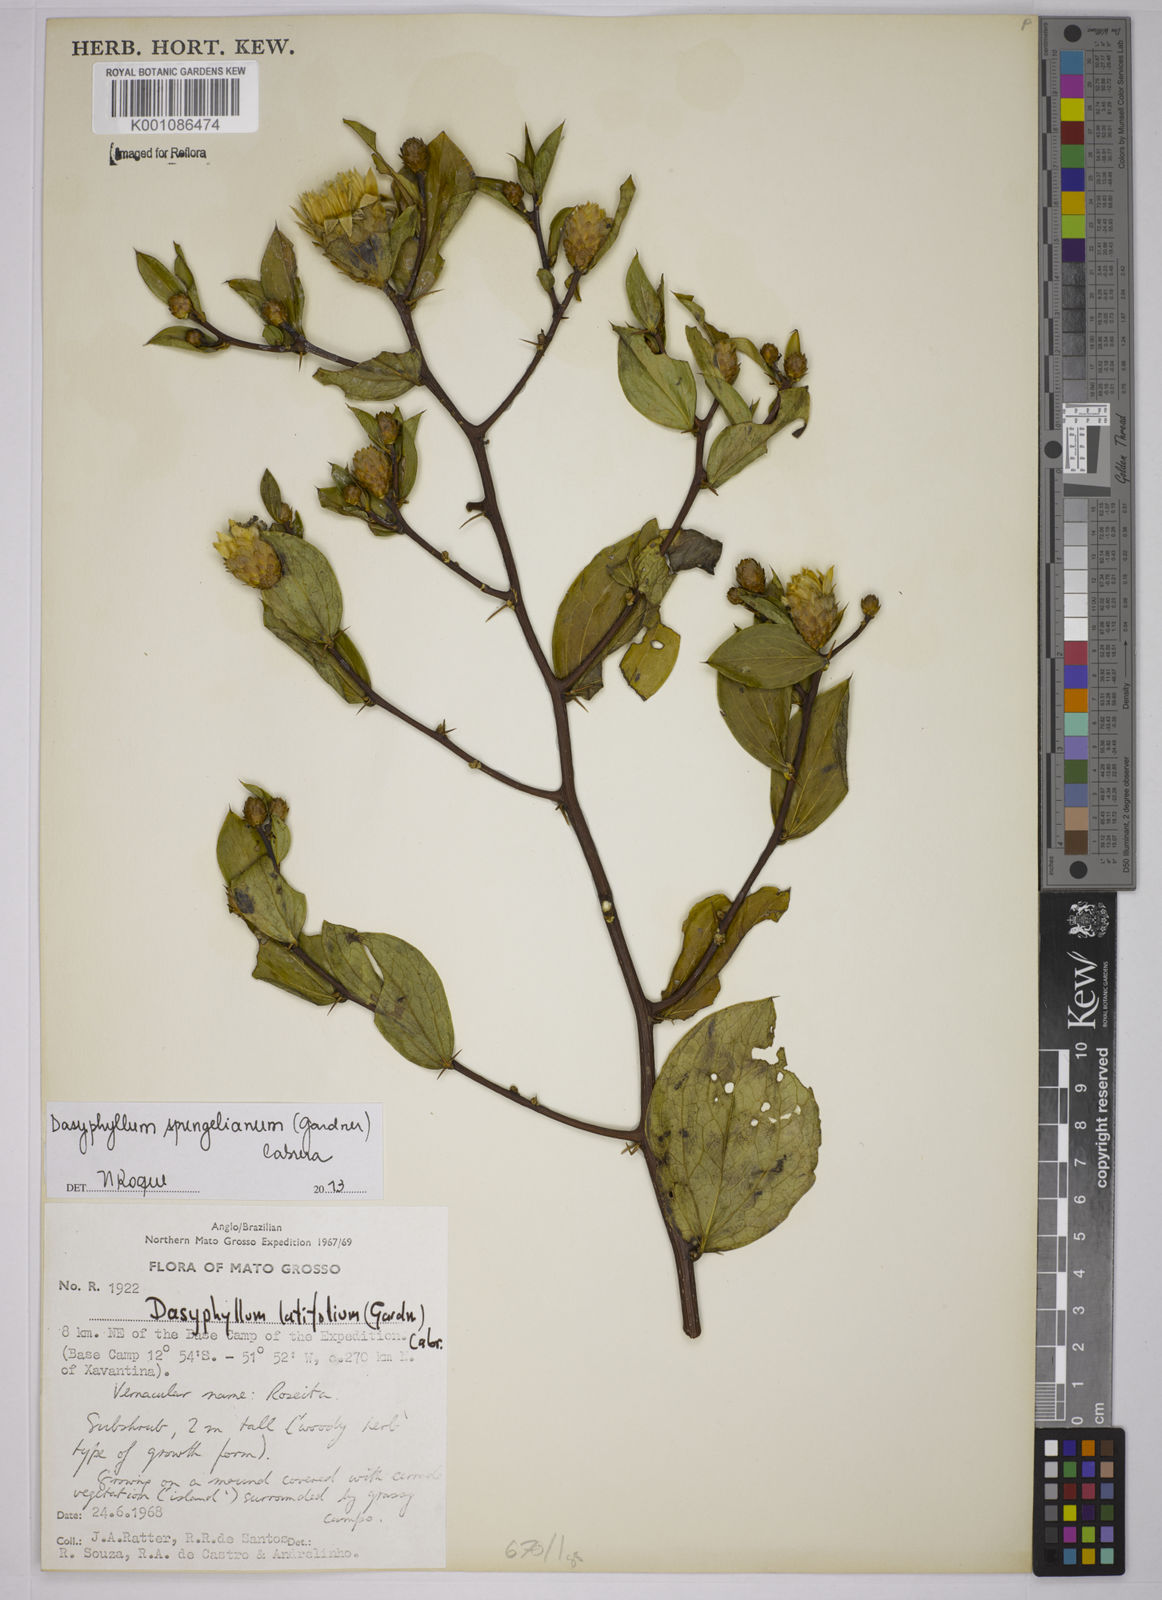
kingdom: Plantae
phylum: Tracheophyta
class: Magnoliopsida
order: Asterales
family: Asteraceae
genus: Dasyphyllum
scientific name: Dasyphyllum sprengelianum
